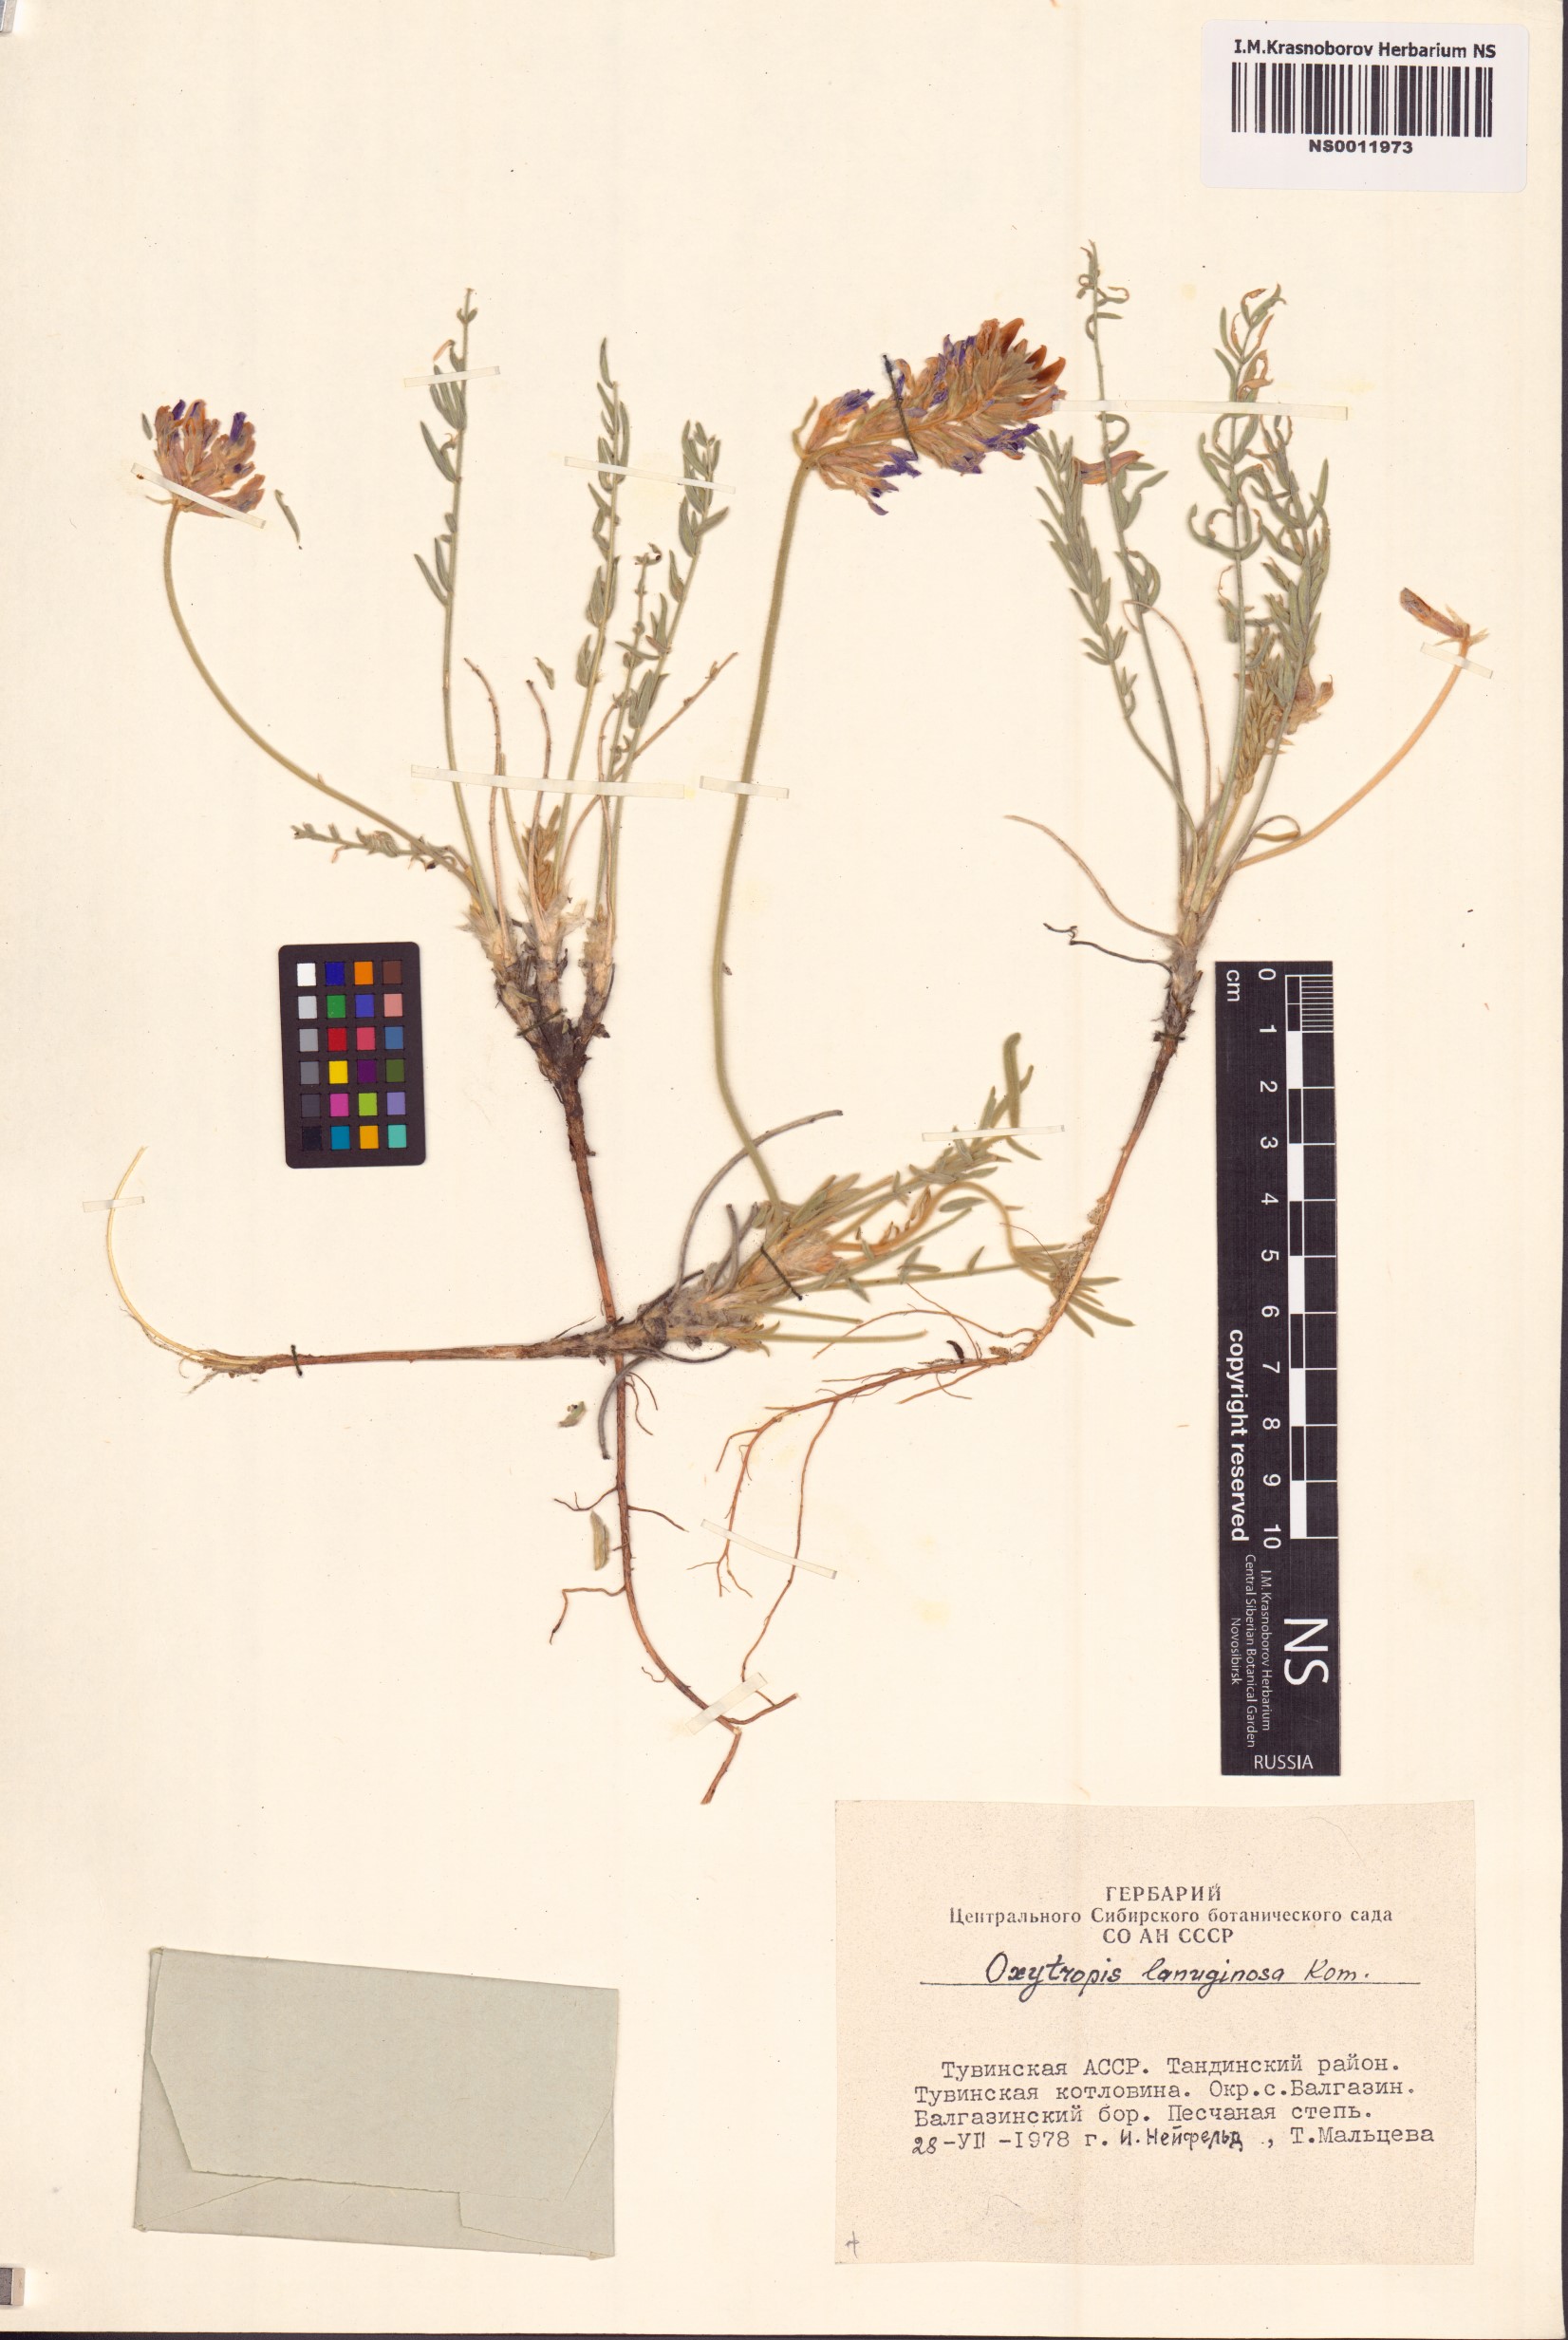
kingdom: Plantae
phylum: Tracheophyta
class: Magnoliopsida
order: Fabales
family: Fabaceae
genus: Oxytropis
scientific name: Oxytropis lanuginosa
